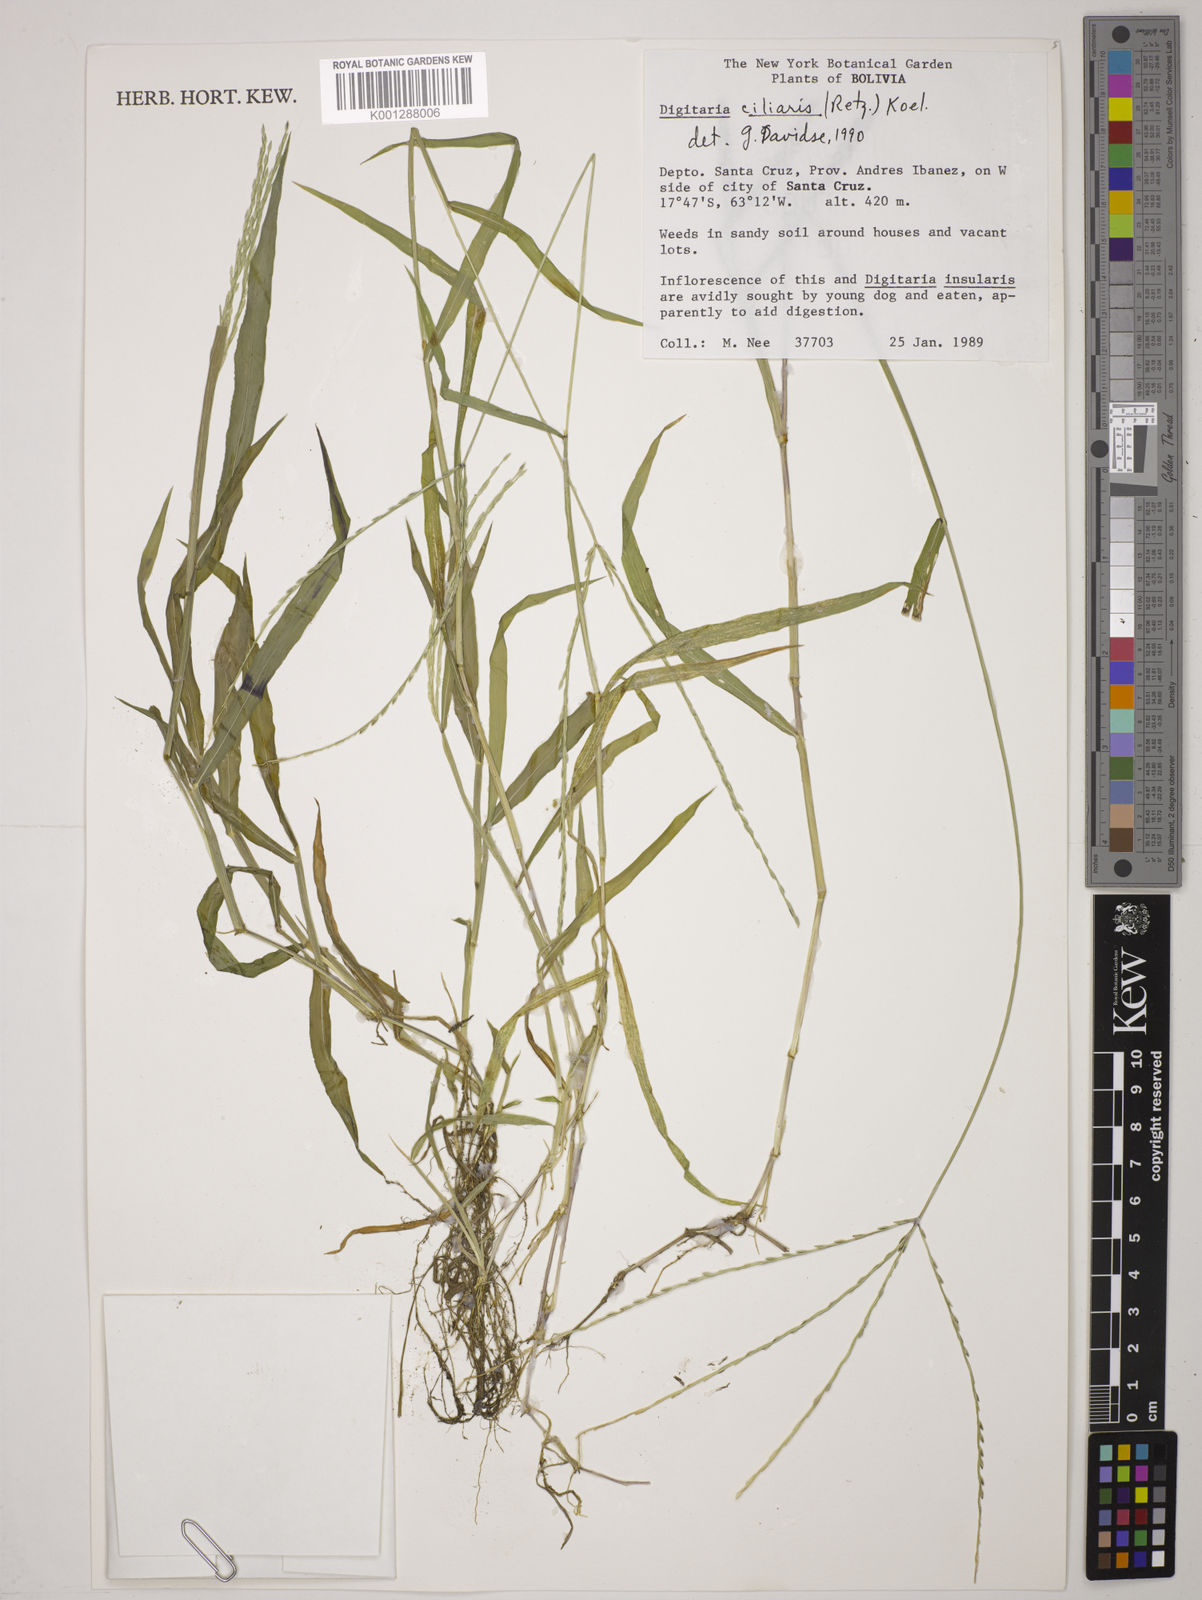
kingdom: Plantae
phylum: Tracheophyta
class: Liliopsida
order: Poales
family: Poaceae
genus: Digitaria
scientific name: Digitaria
